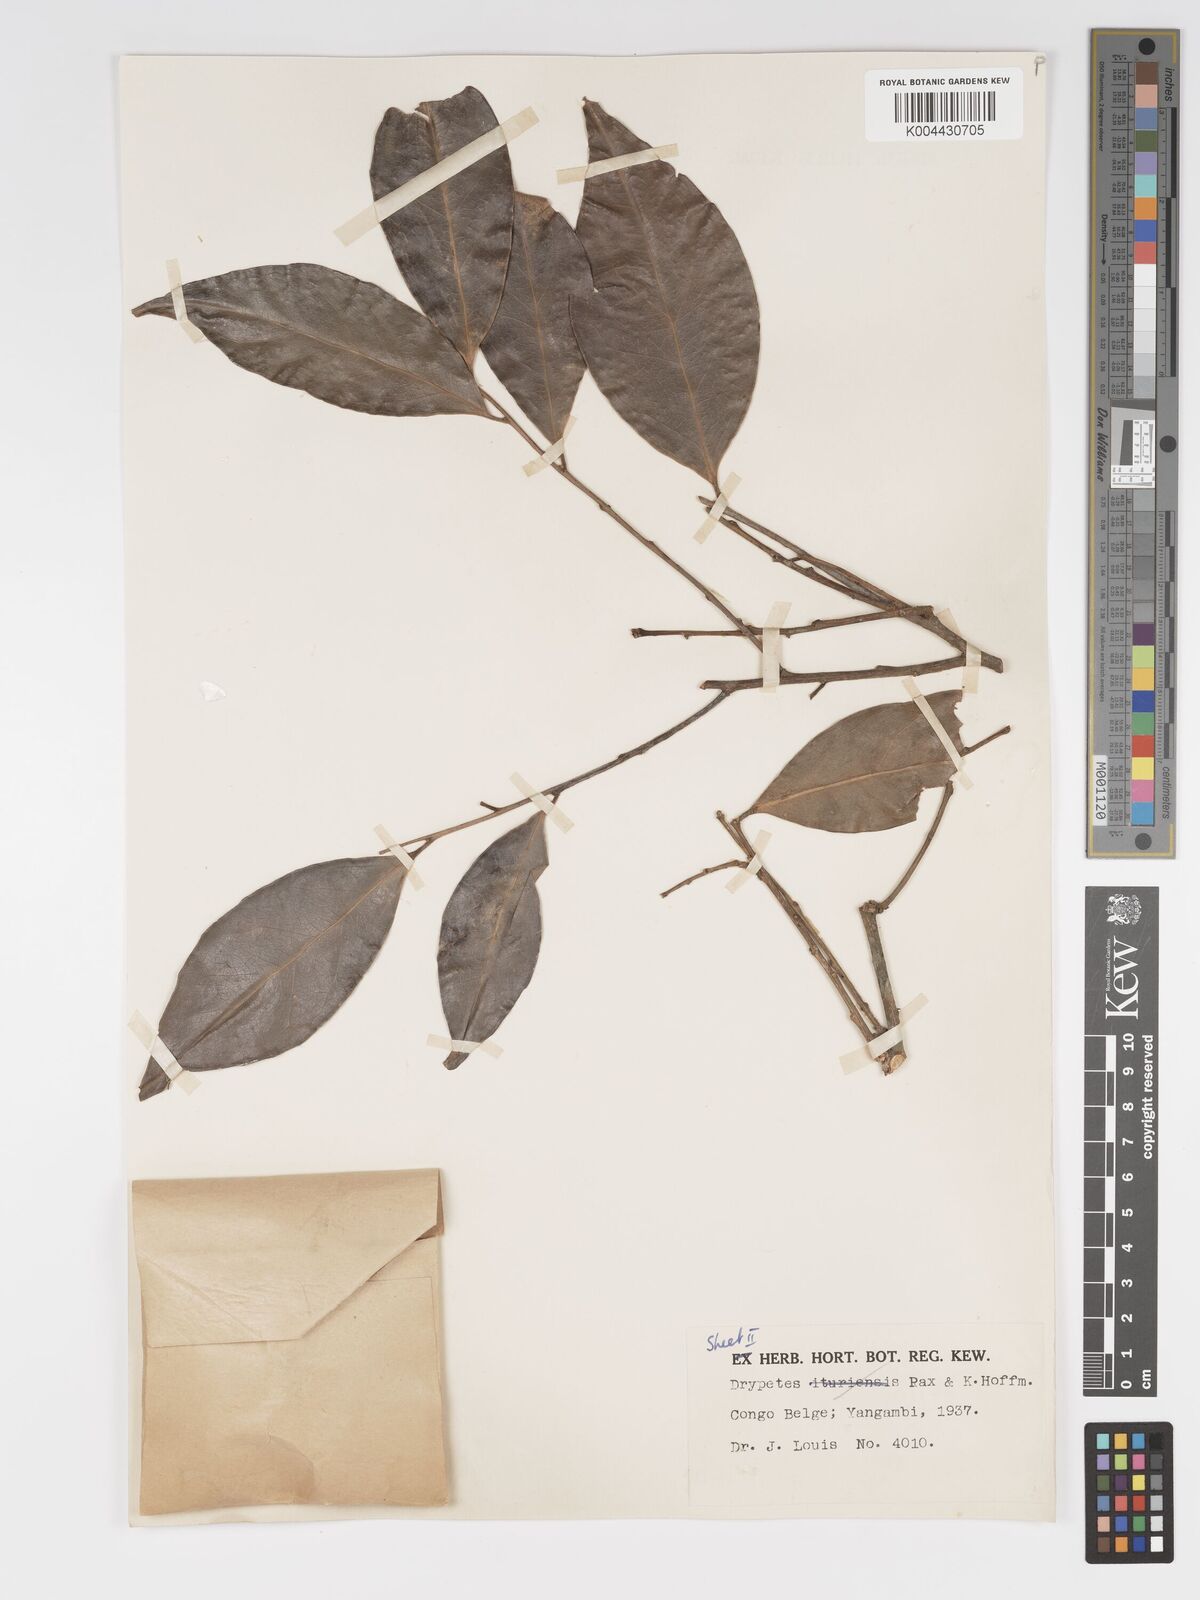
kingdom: Plantae
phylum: Tracheophyta
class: Magnoliopsida
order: Malpighiales
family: Putranjivaceae
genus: Drypetes
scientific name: Drypetes leonensis
